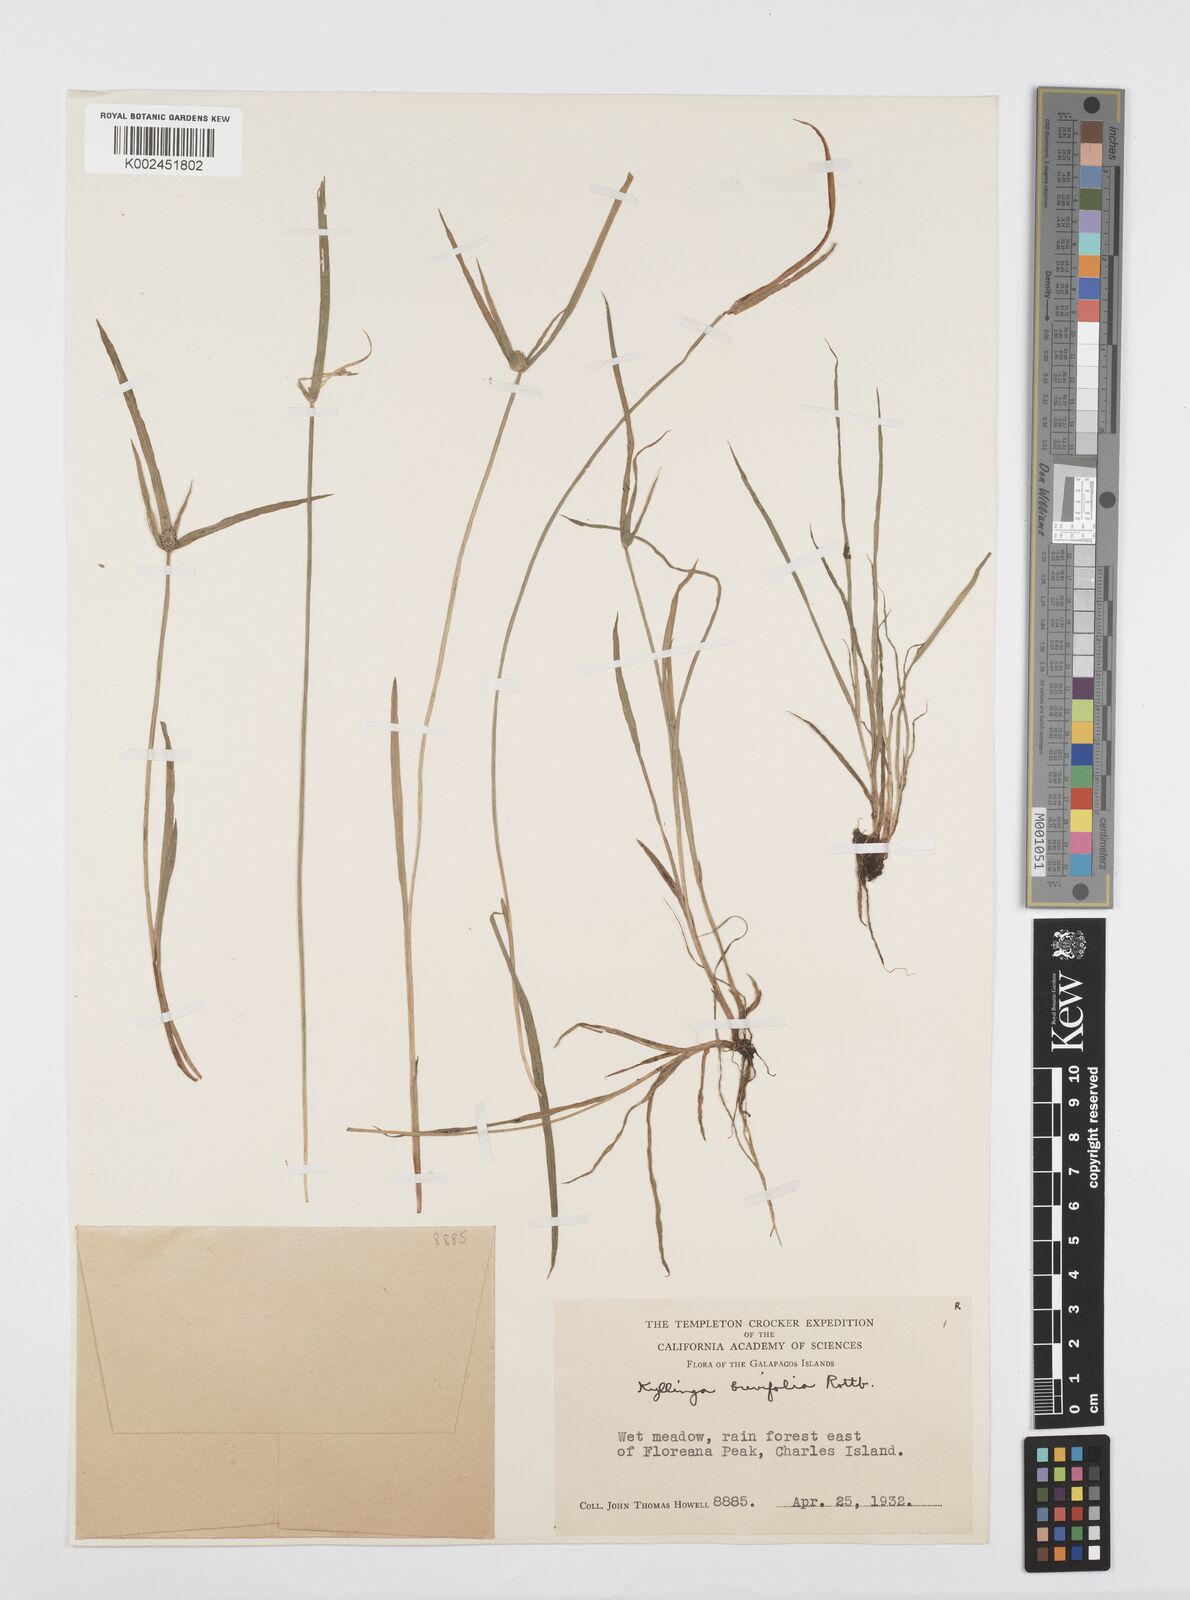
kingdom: Plantae
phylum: Tracheophyta
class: Liliopsida
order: Poales
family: Cyperaceae
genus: Cyperus
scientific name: Cyperus brevifolius
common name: Globe kyllinga
